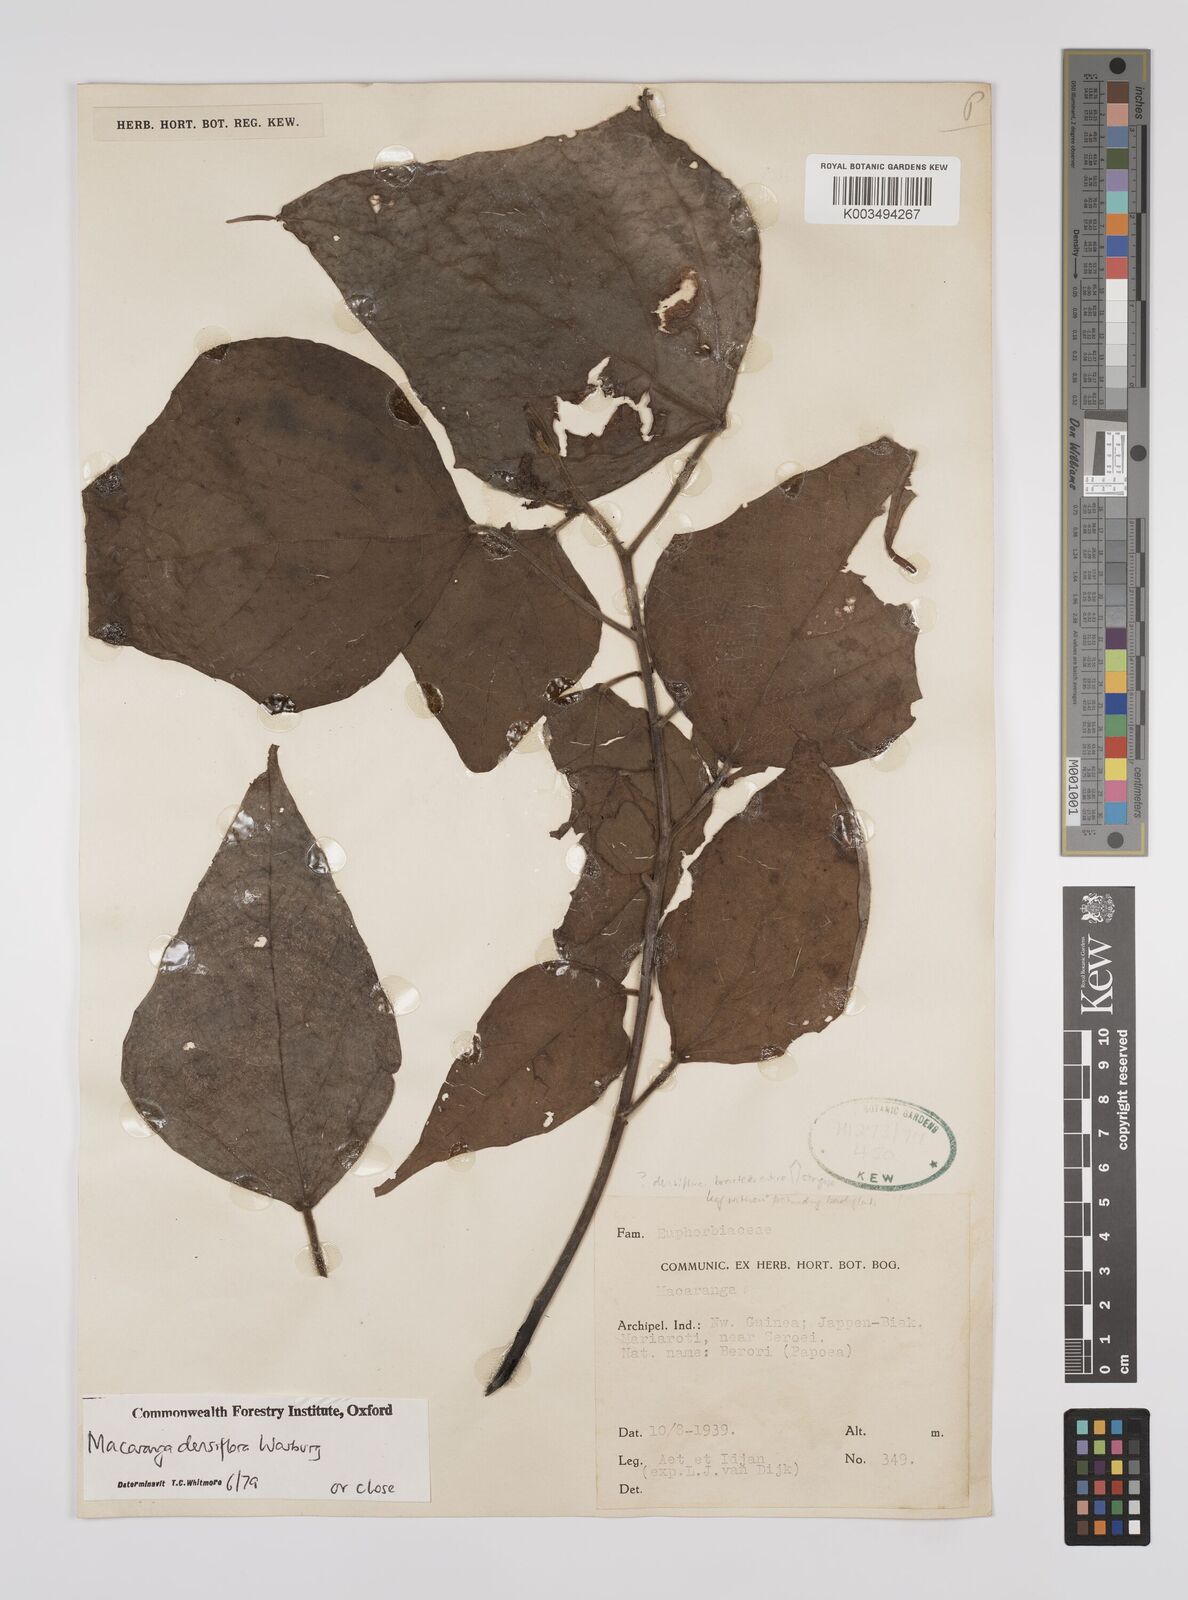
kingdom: Plantae
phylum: Tracheophyta
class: Magnoliopsida
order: Malpighiales
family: Euphorbiaceae
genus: Macaranga
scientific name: Macaranga densiflora
